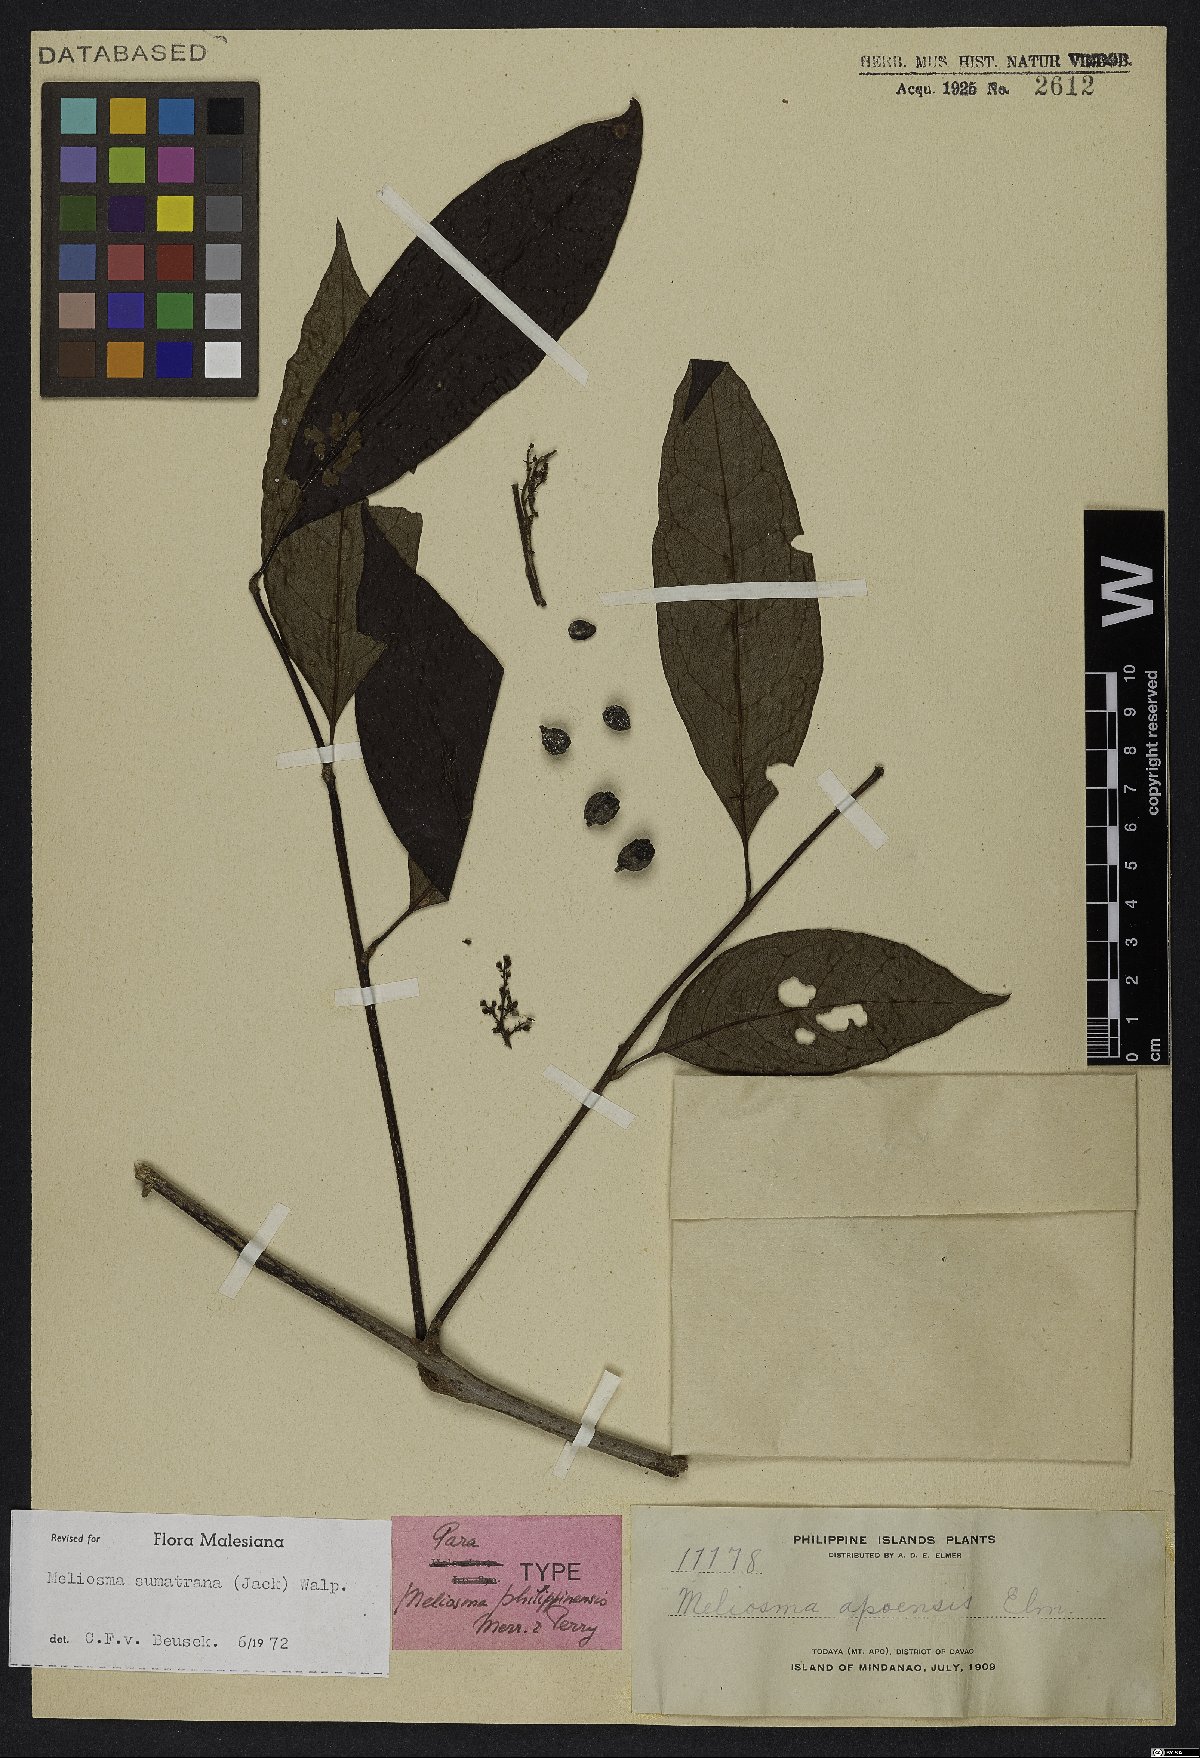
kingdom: Plantae
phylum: Tracheophyta
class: Magnoliopsida
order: Proteales
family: Sabiaceae
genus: Meliosma
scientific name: Meliosma sumatrana
